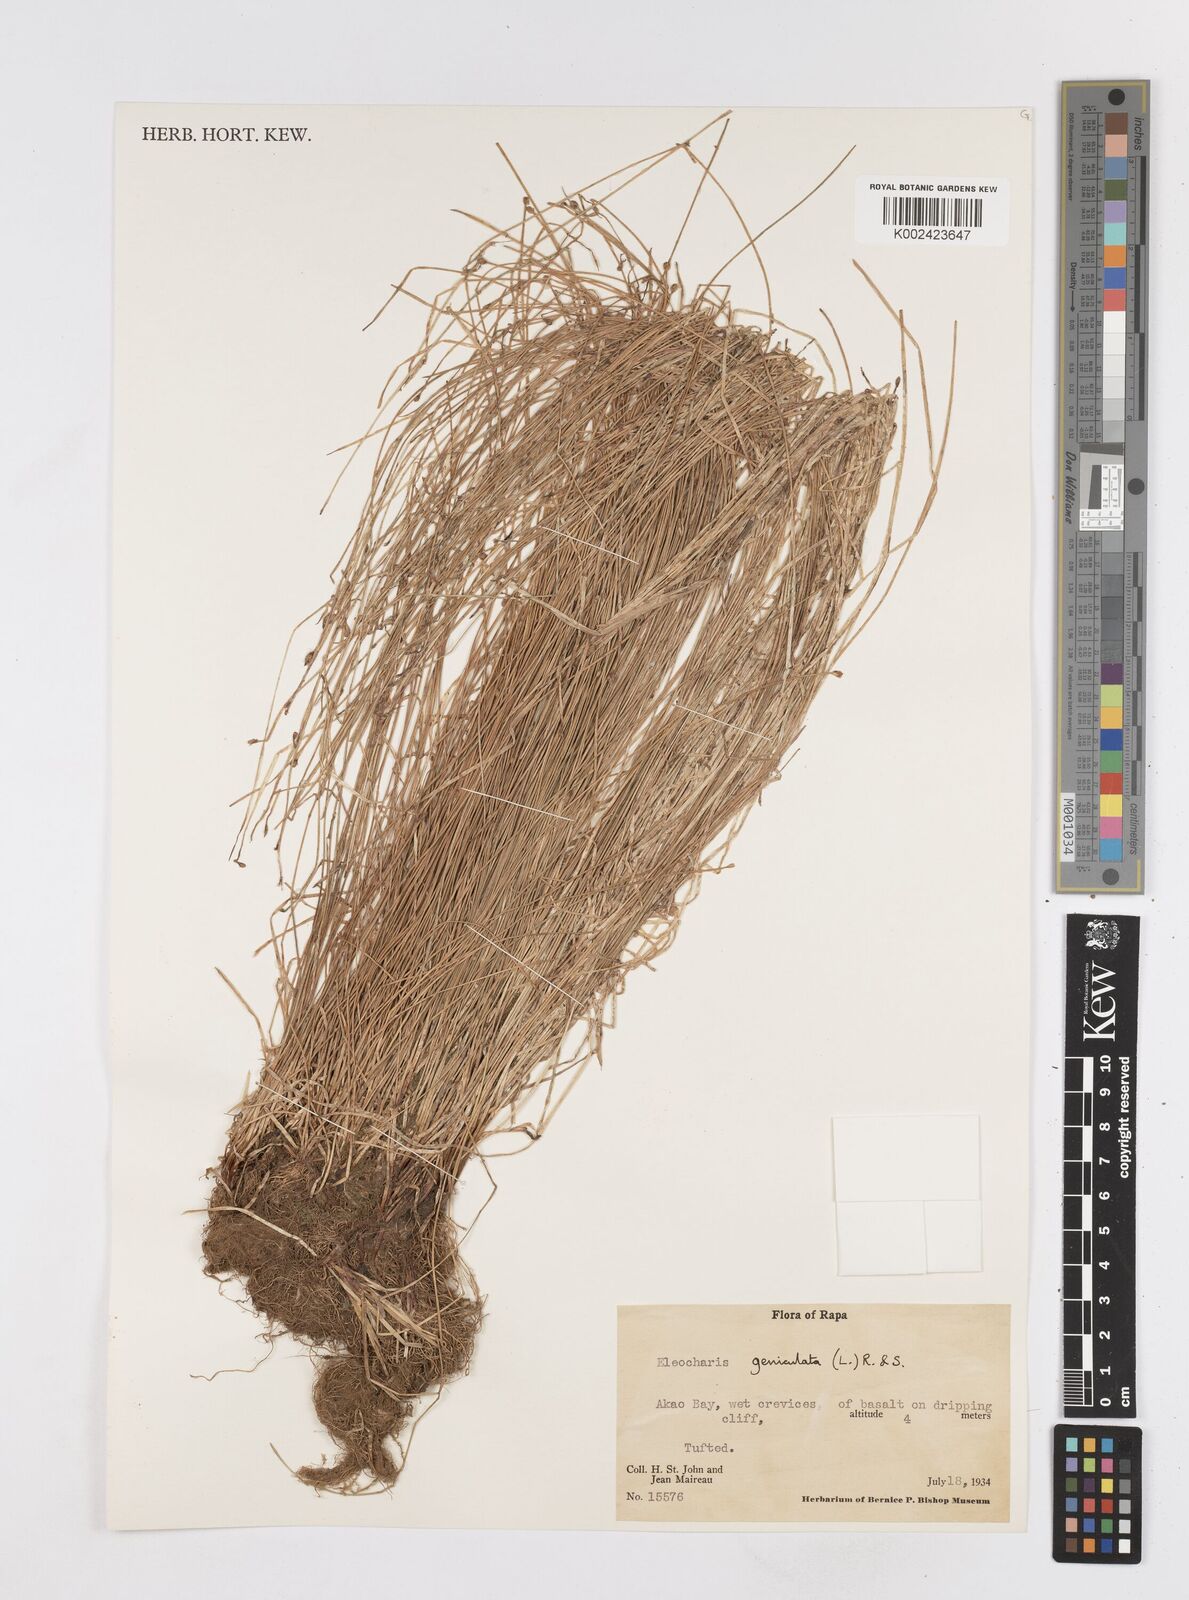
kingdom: Plantae
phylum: Tracheophyta
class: Liliopsida
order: Poales
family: Cyperaceae
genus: Eleocharis
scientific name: Eleocharis geniculata
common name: Canada spikesedge
